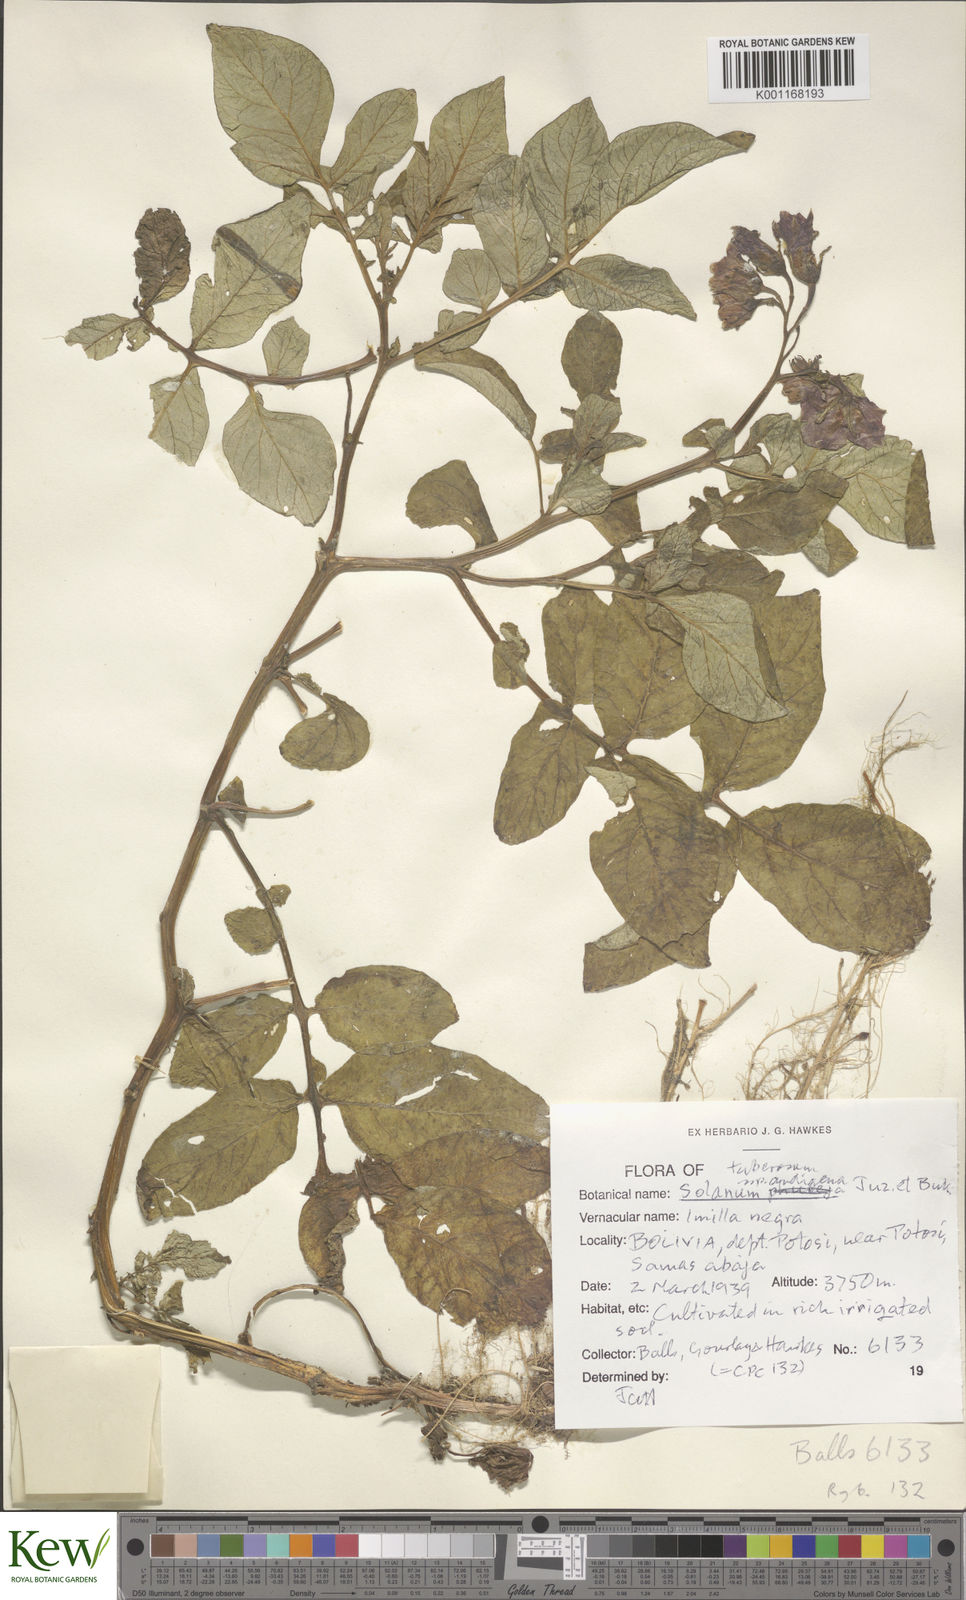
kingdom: Plantae
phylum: Tracheophyta
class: Magnoliopsida
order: Solanales
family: Solanaceae
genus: Solanum
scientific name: Solanum tuberosum
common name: Potato
